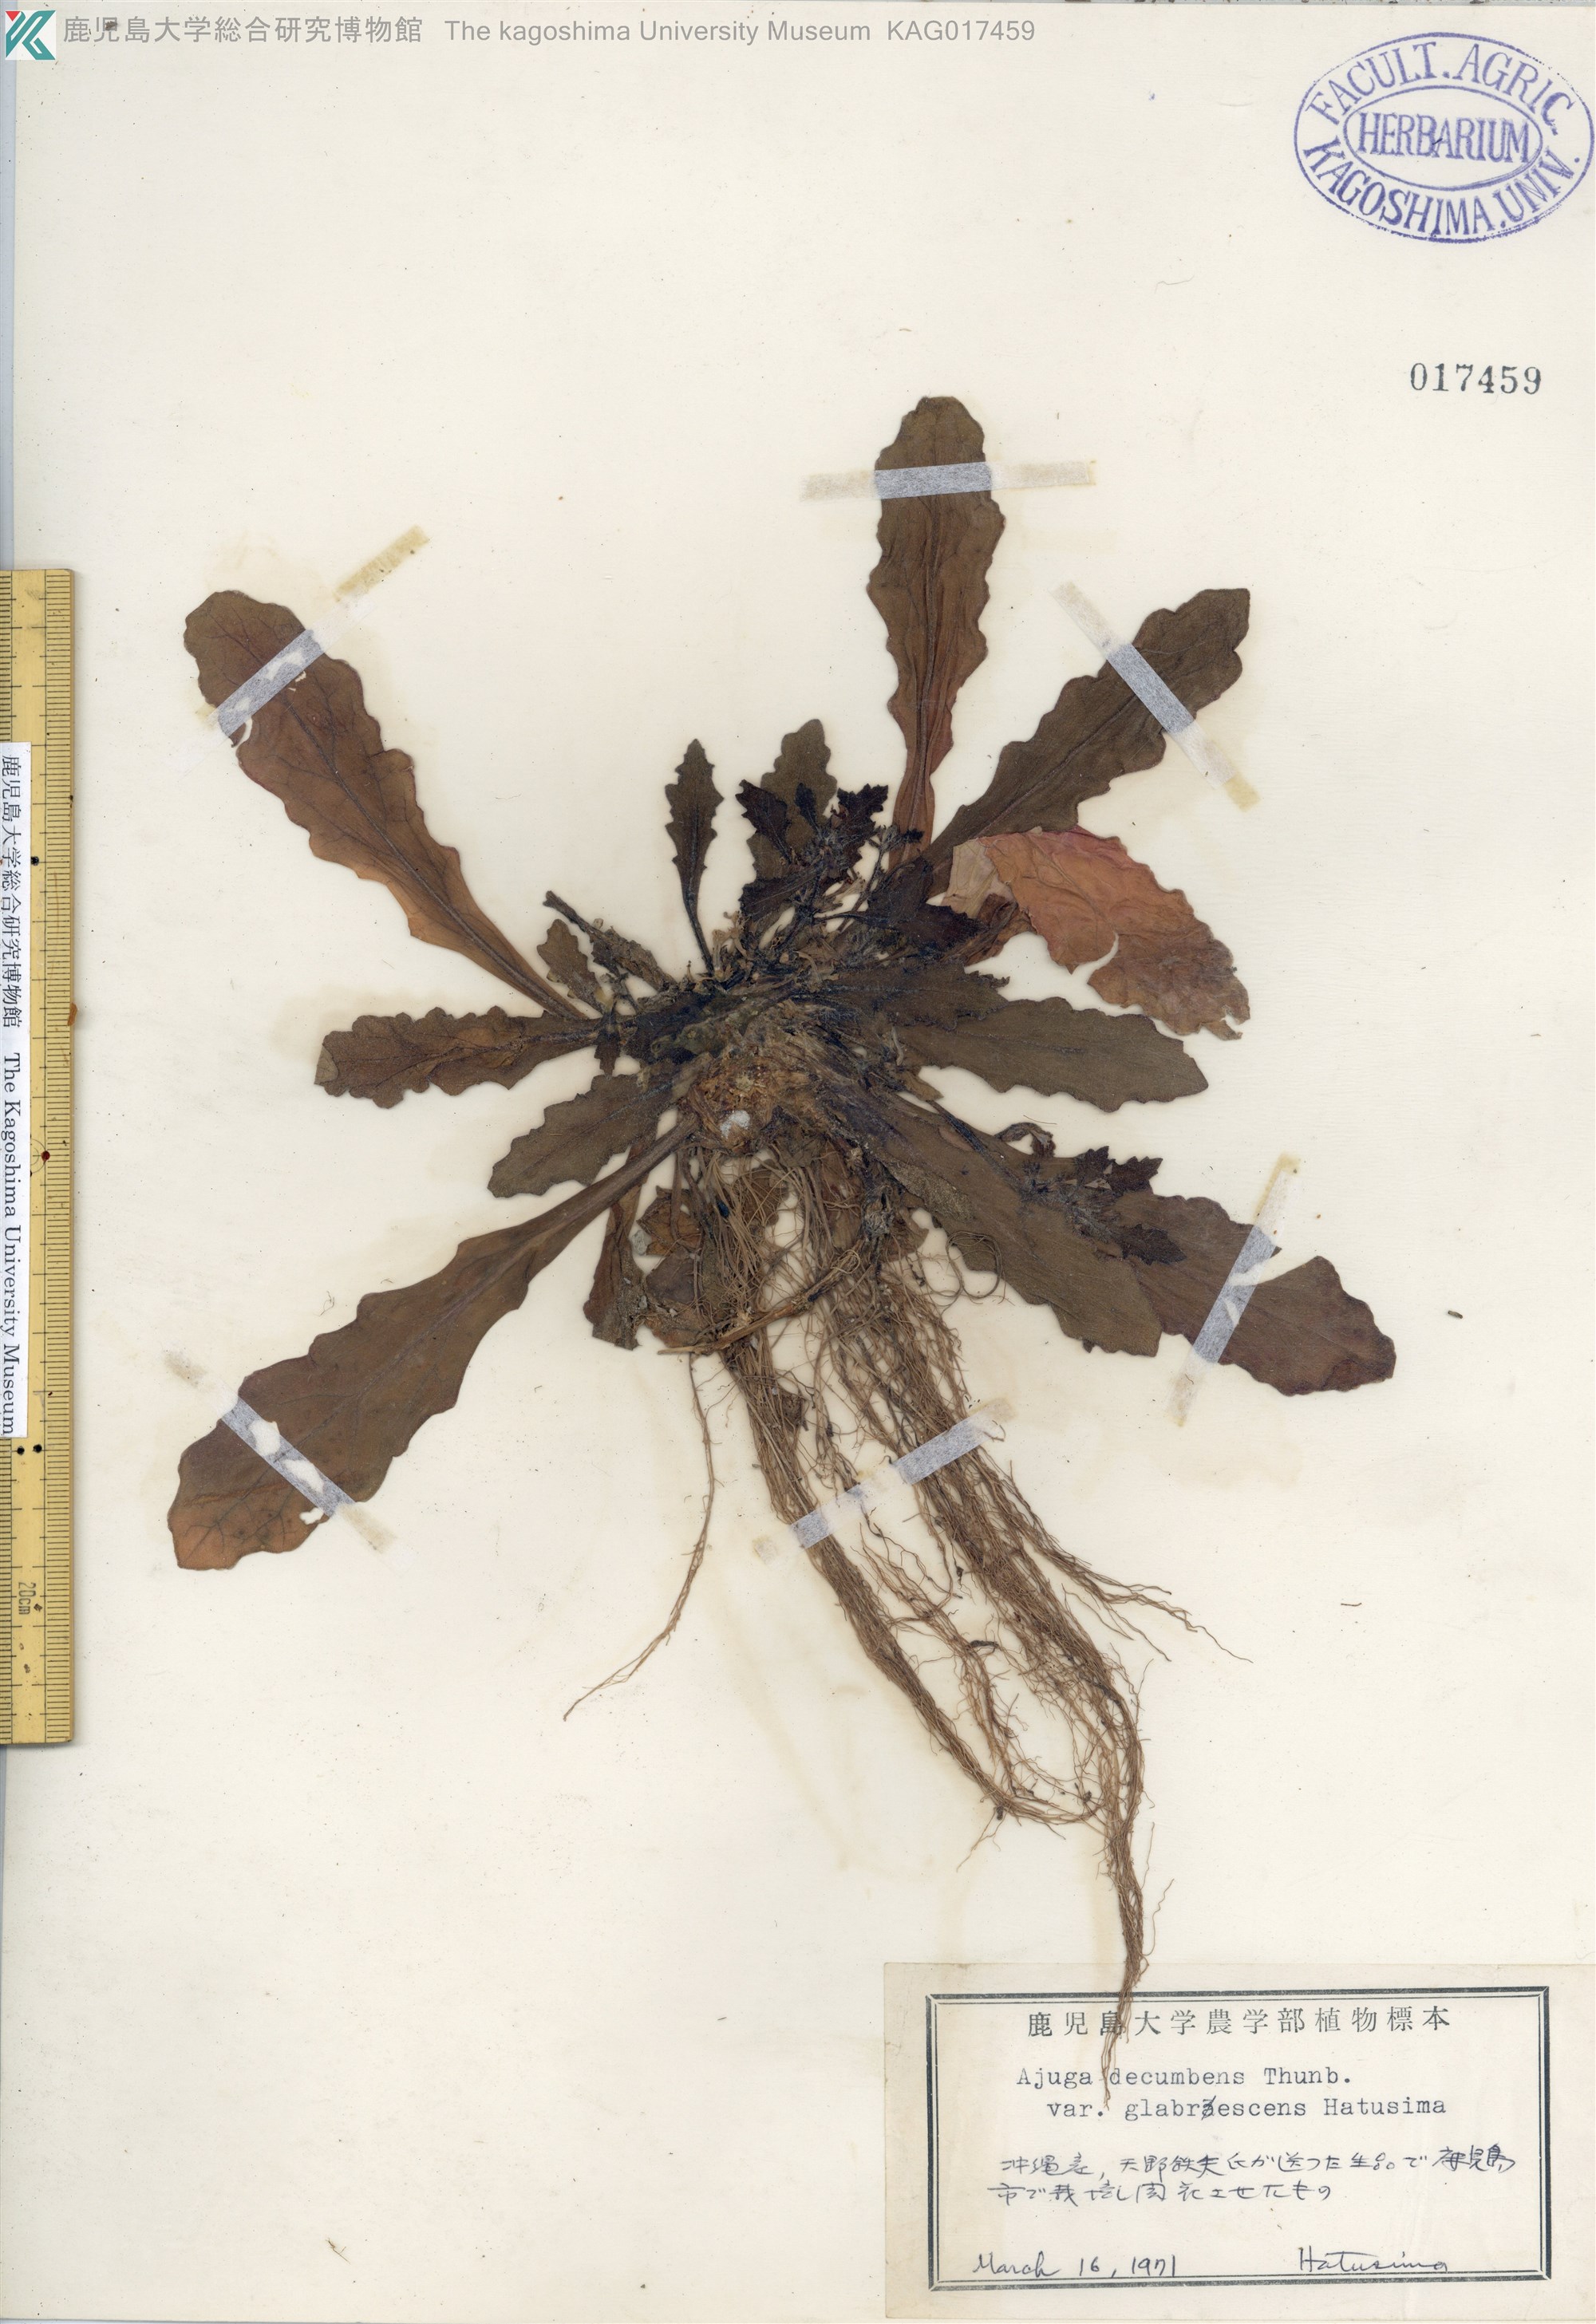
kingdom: Plantae
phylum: Tracheophyta
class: Magnoliopsida
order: Lamiales
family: Lamiaceae
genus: Ajuga
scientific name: Ajuga decumbens
